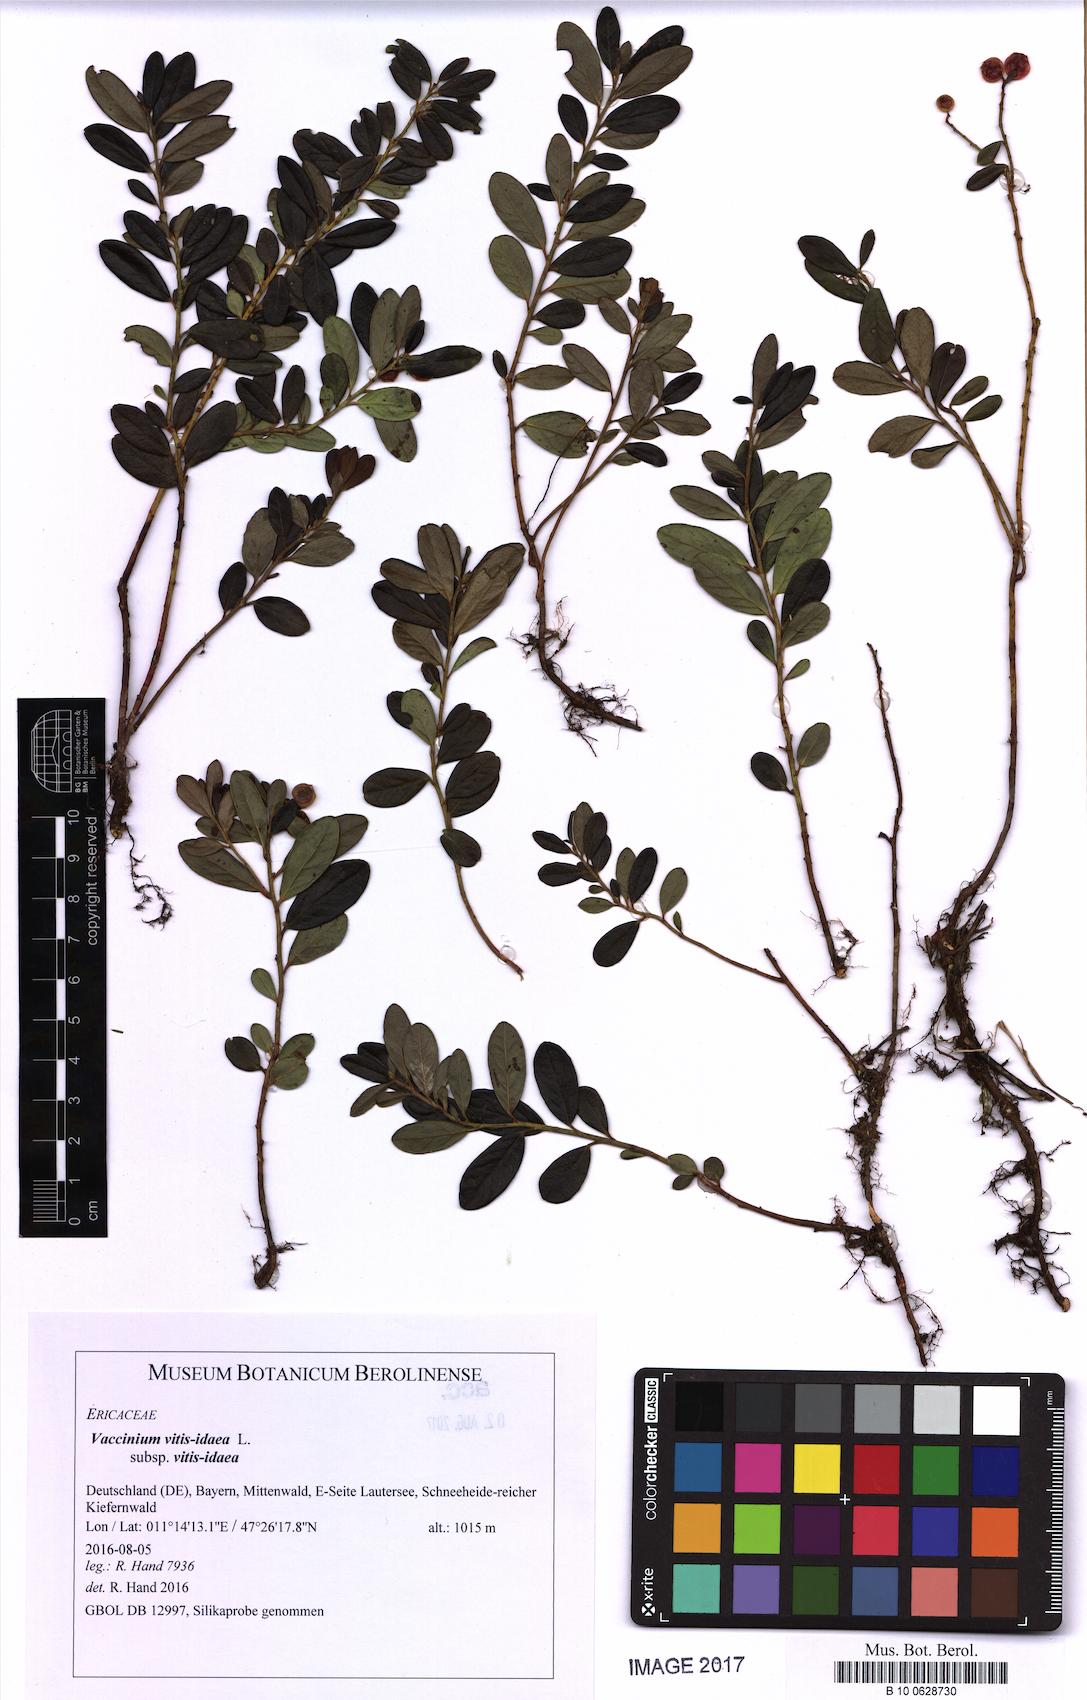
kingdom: Plantae
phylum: Tracheophyta
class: Magnoliopsida
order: Ericales
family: Ericaceae
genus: Vaccinium
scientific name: Vaccinium vitis-idaea
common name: Cowberry
